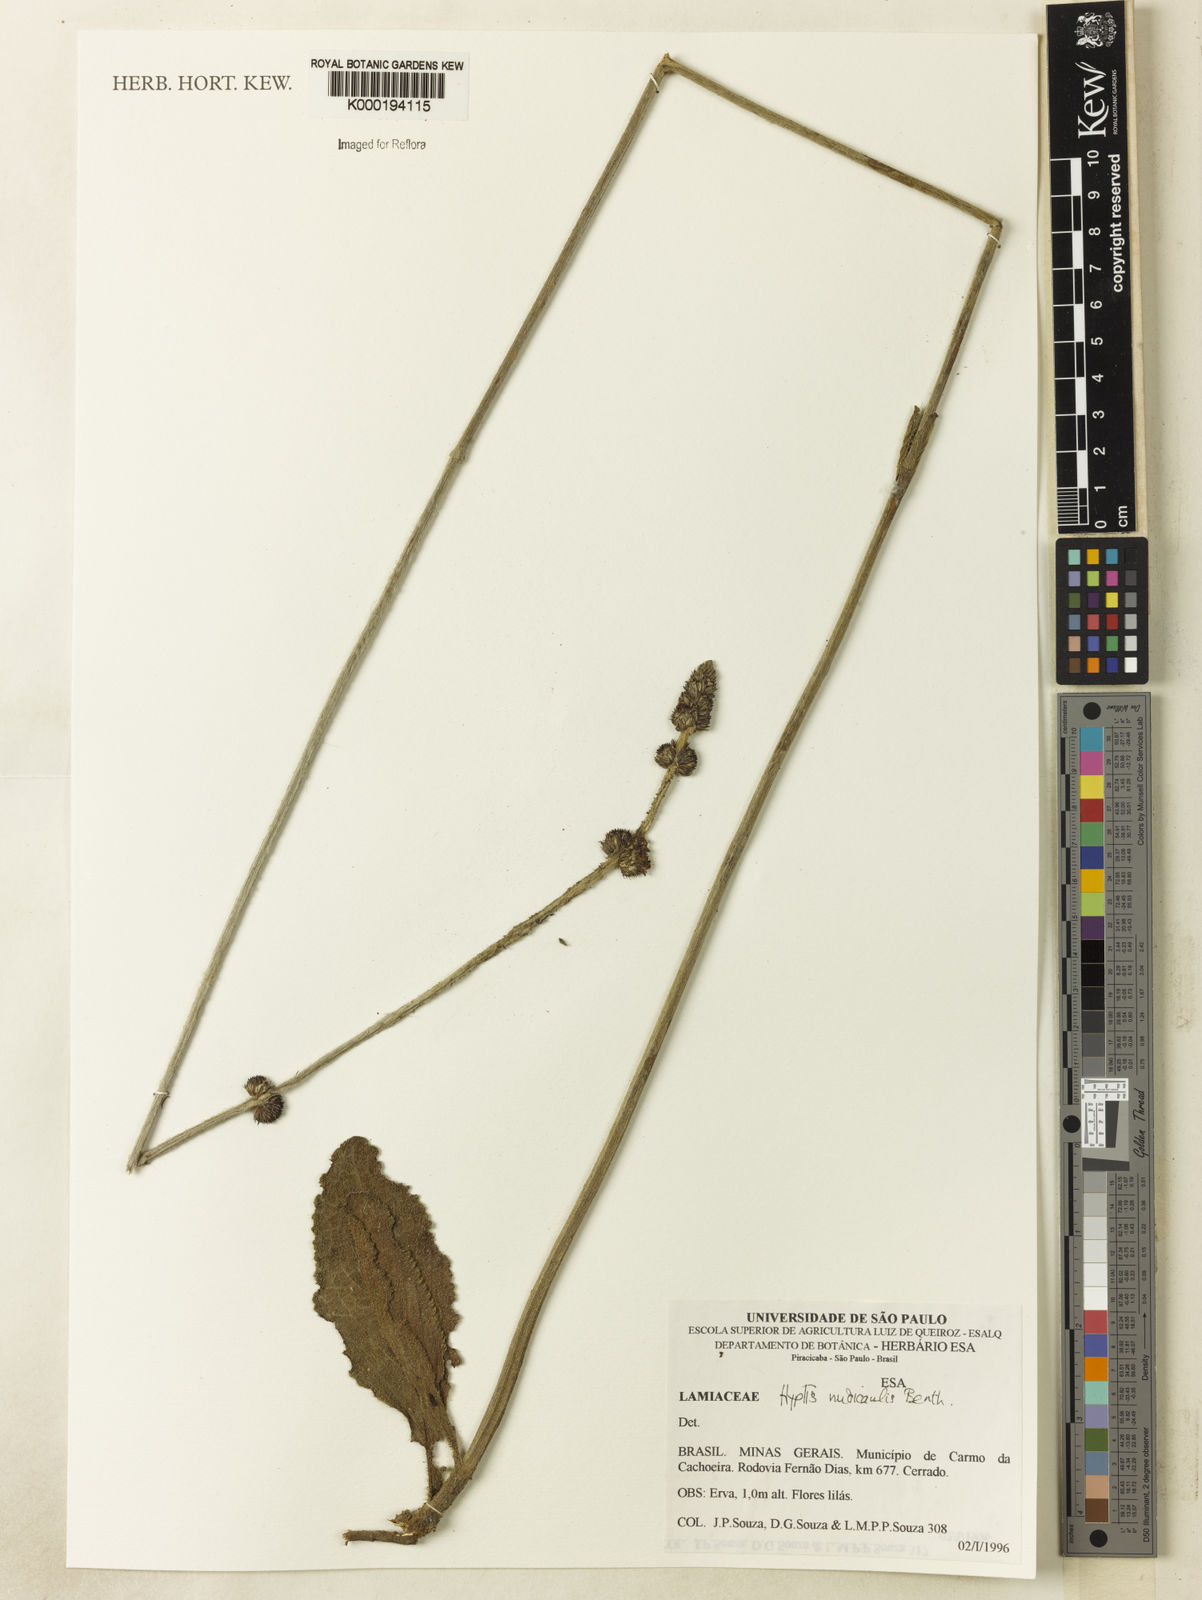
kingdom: Plantae
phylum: Tracheophyta
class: Magnoliopsida
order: Lamiales
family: Lamiaceae
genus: Hyptis
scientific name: Hyptis nudicaulis
